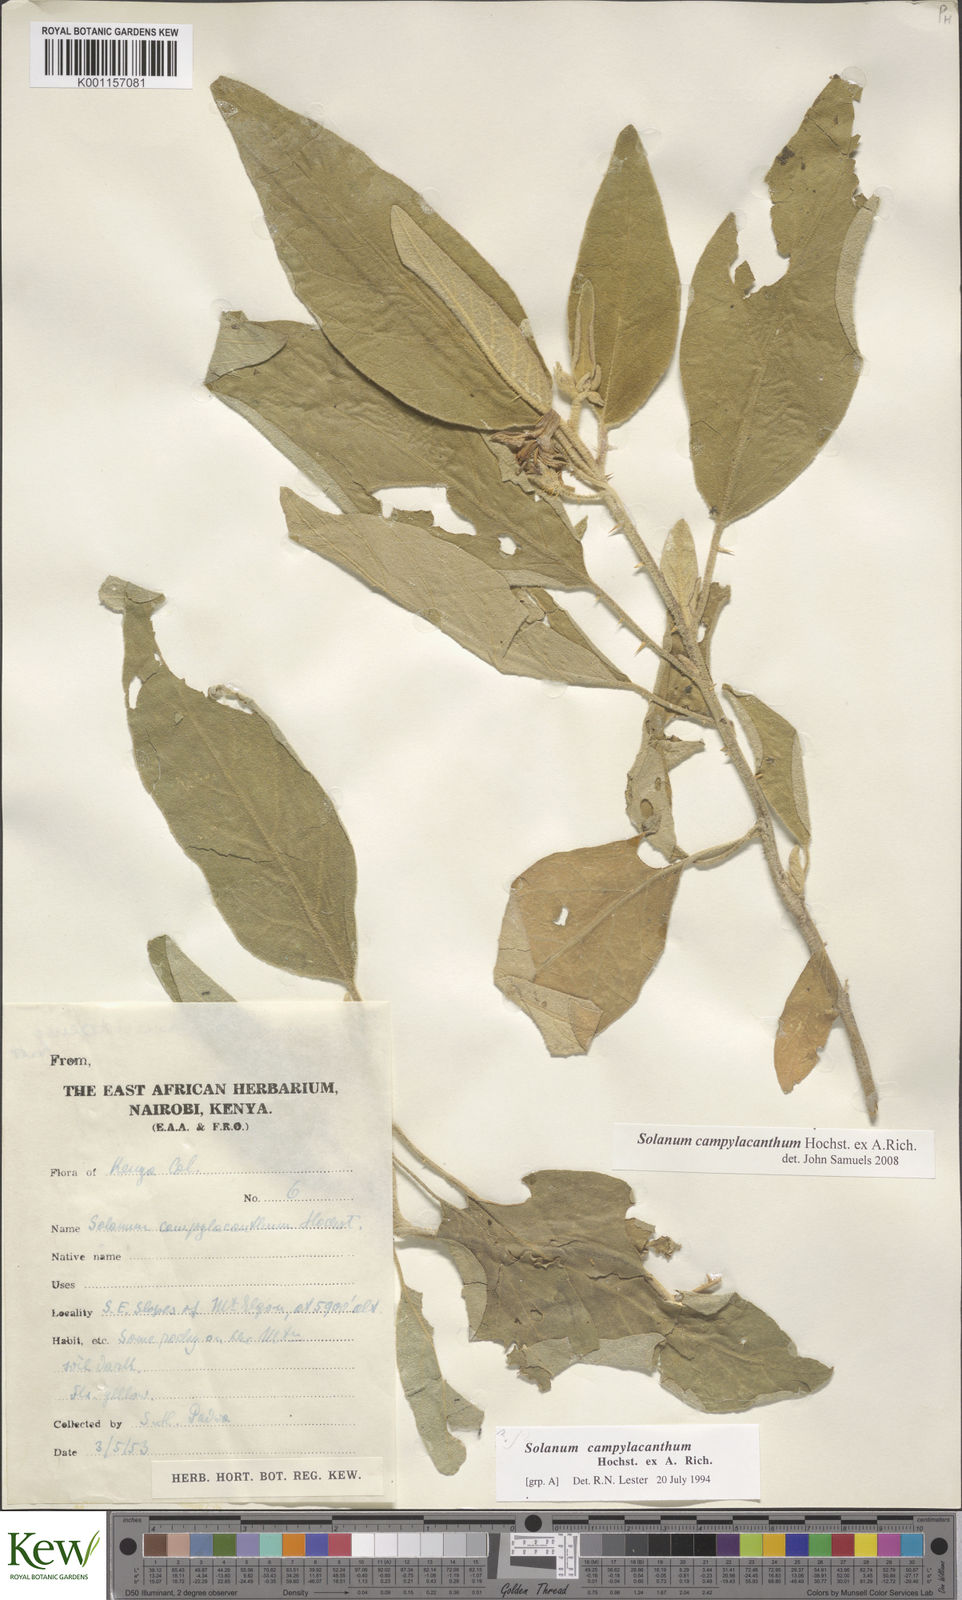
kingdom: Plantae
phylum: Tracheophyta
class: Magnoliopsida
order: Solanales
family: Solanaceae
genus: Solanum
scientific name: Solanum campylacanthum
